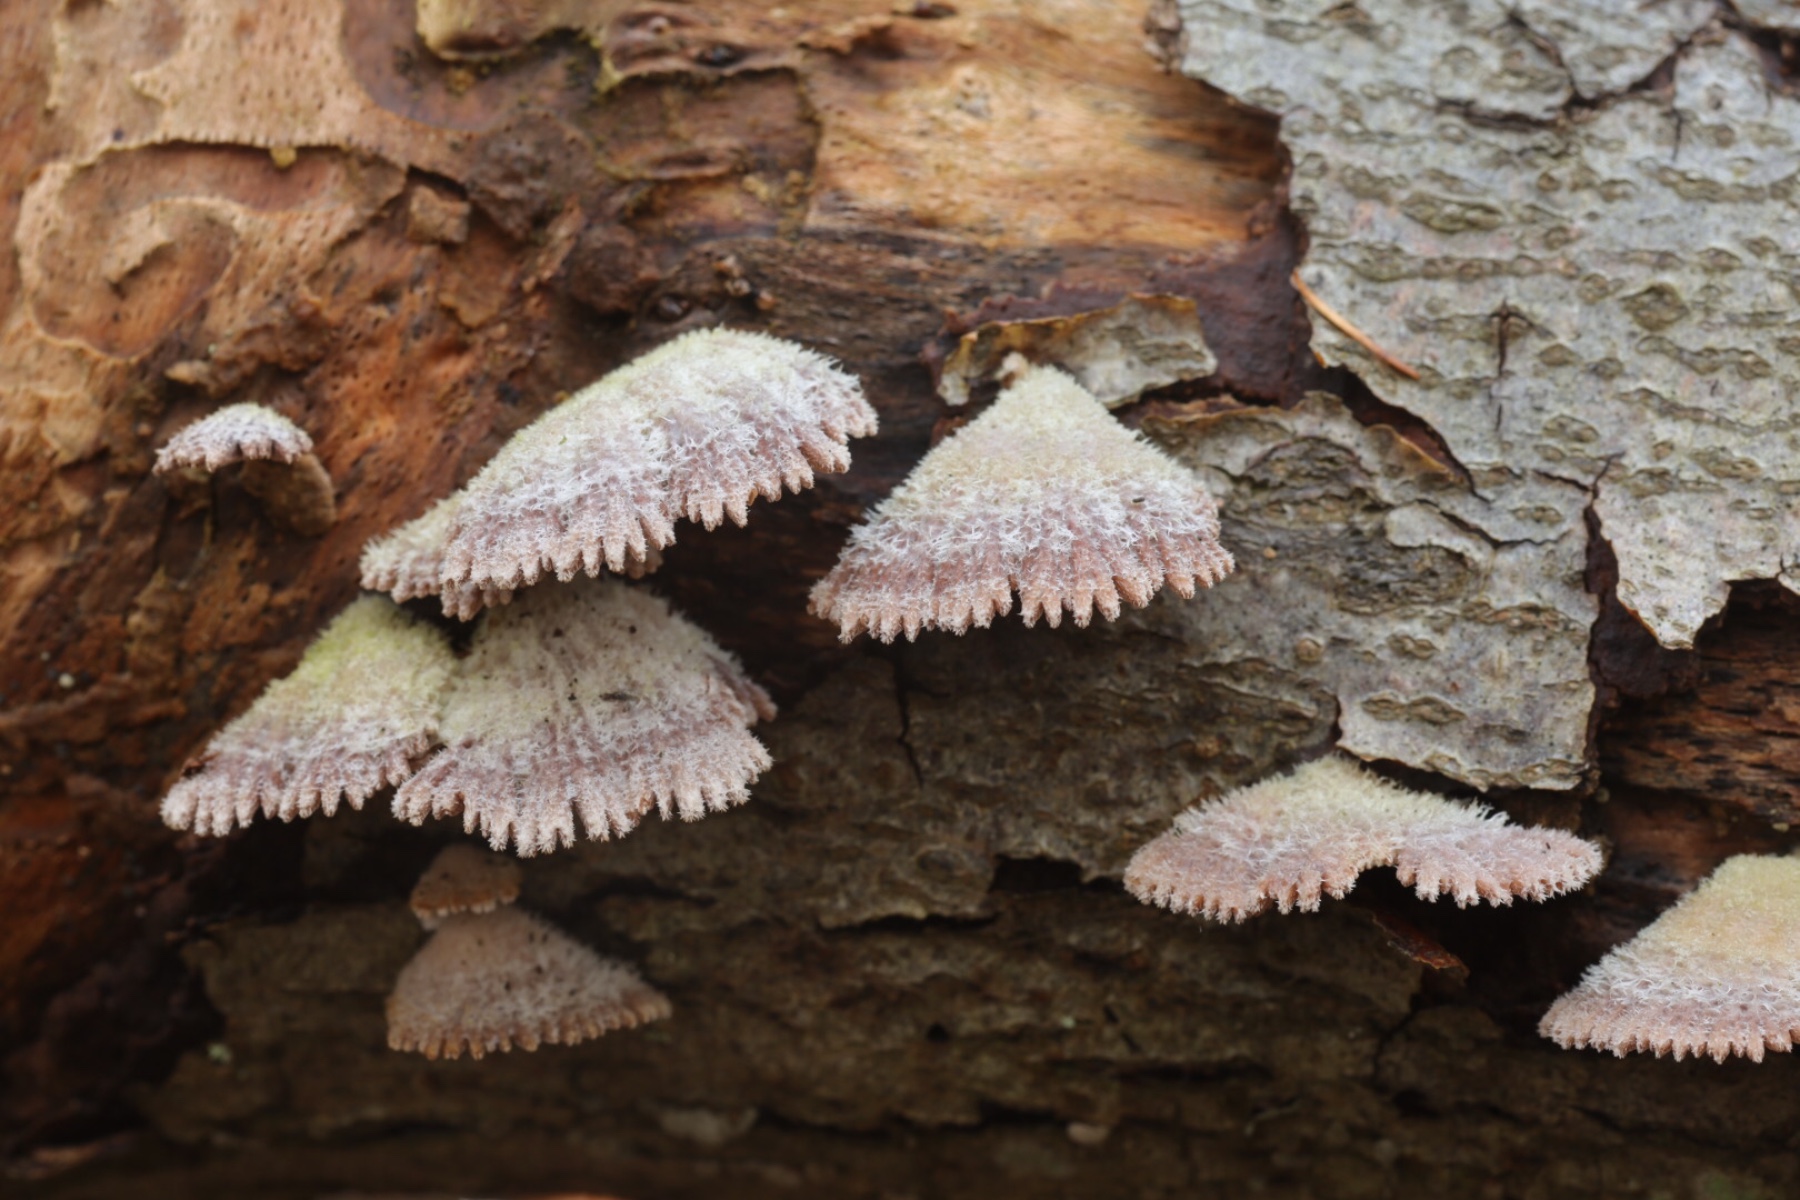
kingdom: Fungi
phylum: Basidiomycota
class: Agaricomycetes
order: Agaricales
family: Schizophyllaceae
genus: Schizophyllum
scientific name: Schizophyllum commune
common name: kløvblad
